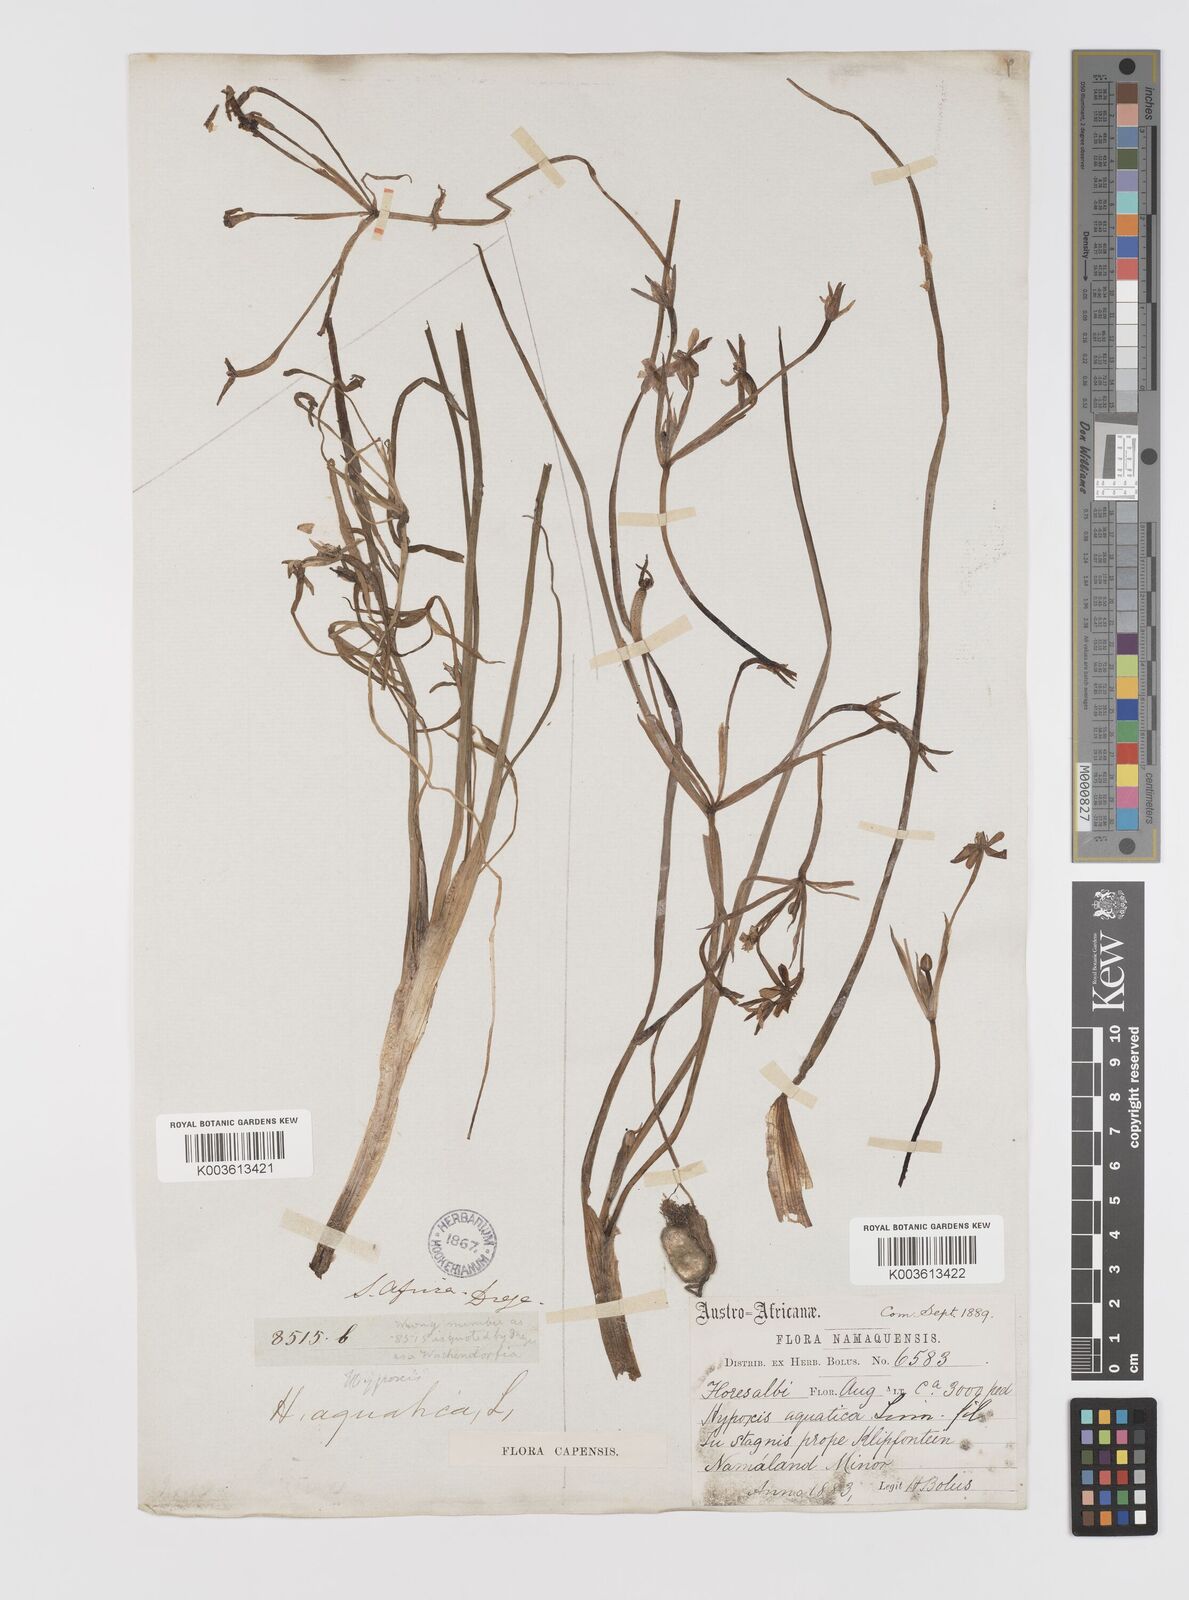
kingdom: Plantae
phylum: Tracheophyta
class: Liliopsida
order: Asparagales
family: Hypoxidaceae
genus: Pauridia
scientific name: Pauridia aquatica
